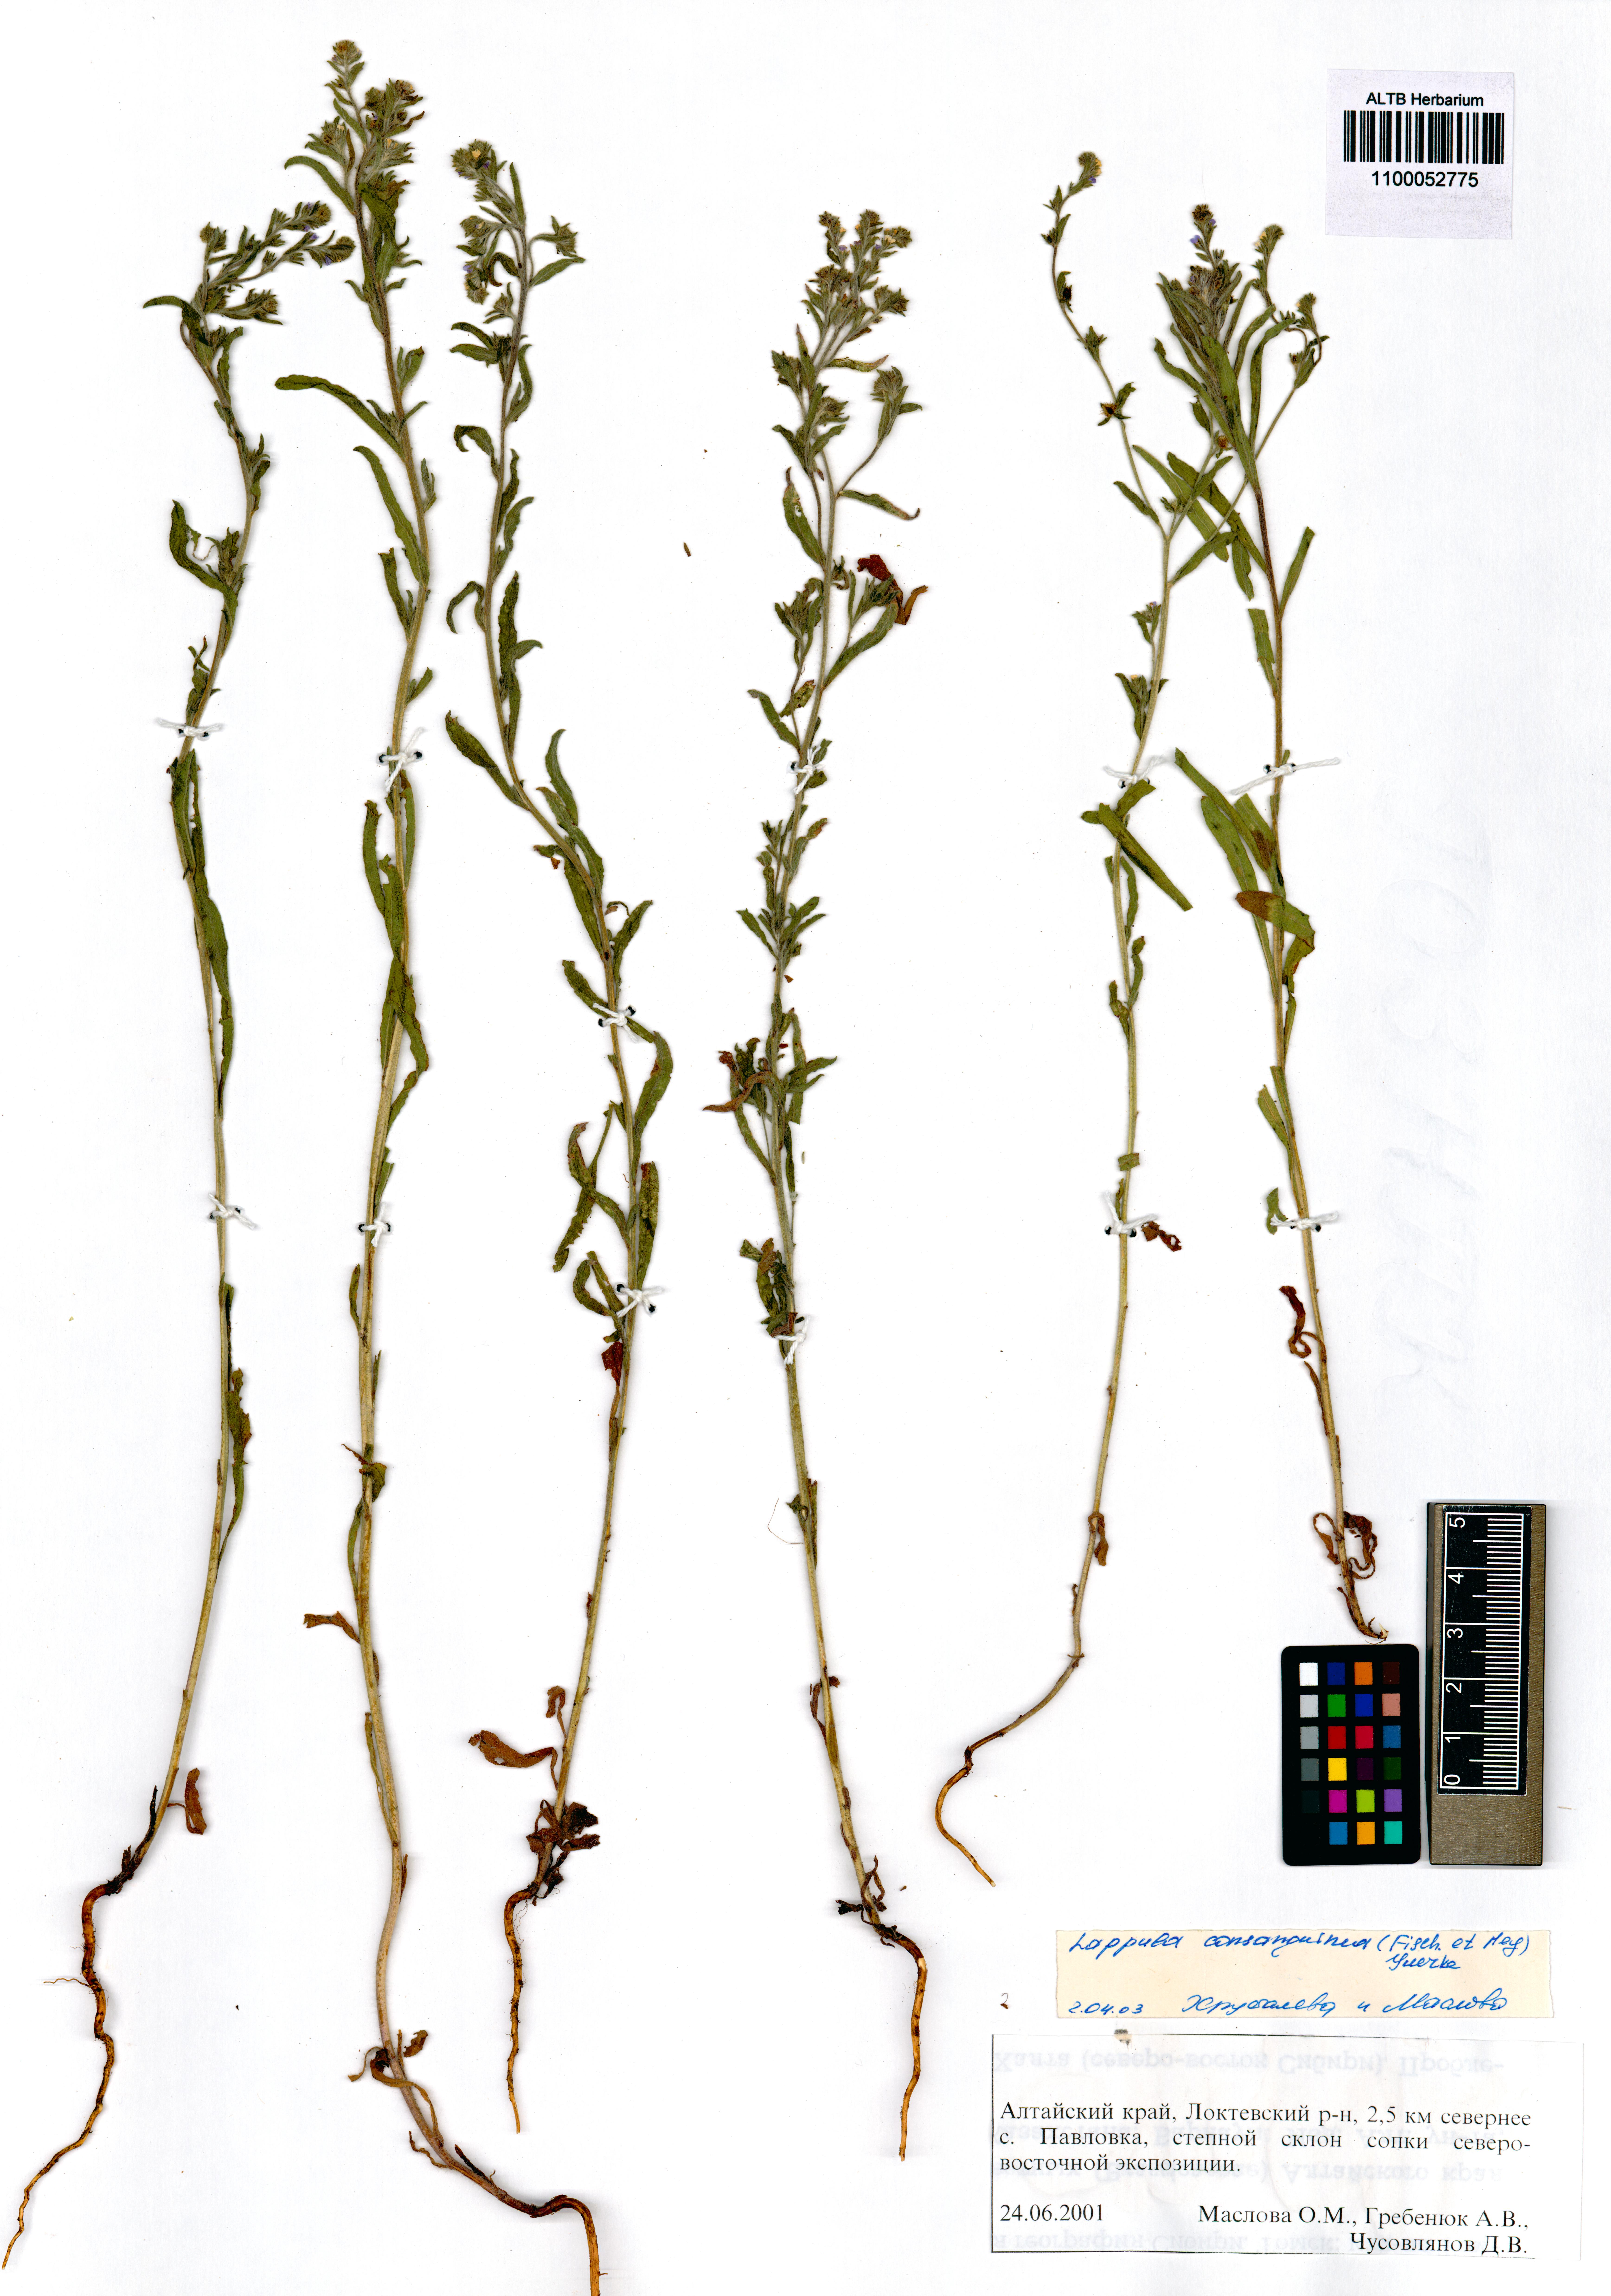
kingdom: Plantae
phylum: Tracheophyta
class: Magnoliopsida
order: Boraginales
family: Boraginaceae
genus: Lappula
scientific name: Lappula squarrosa
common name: European stickseed
